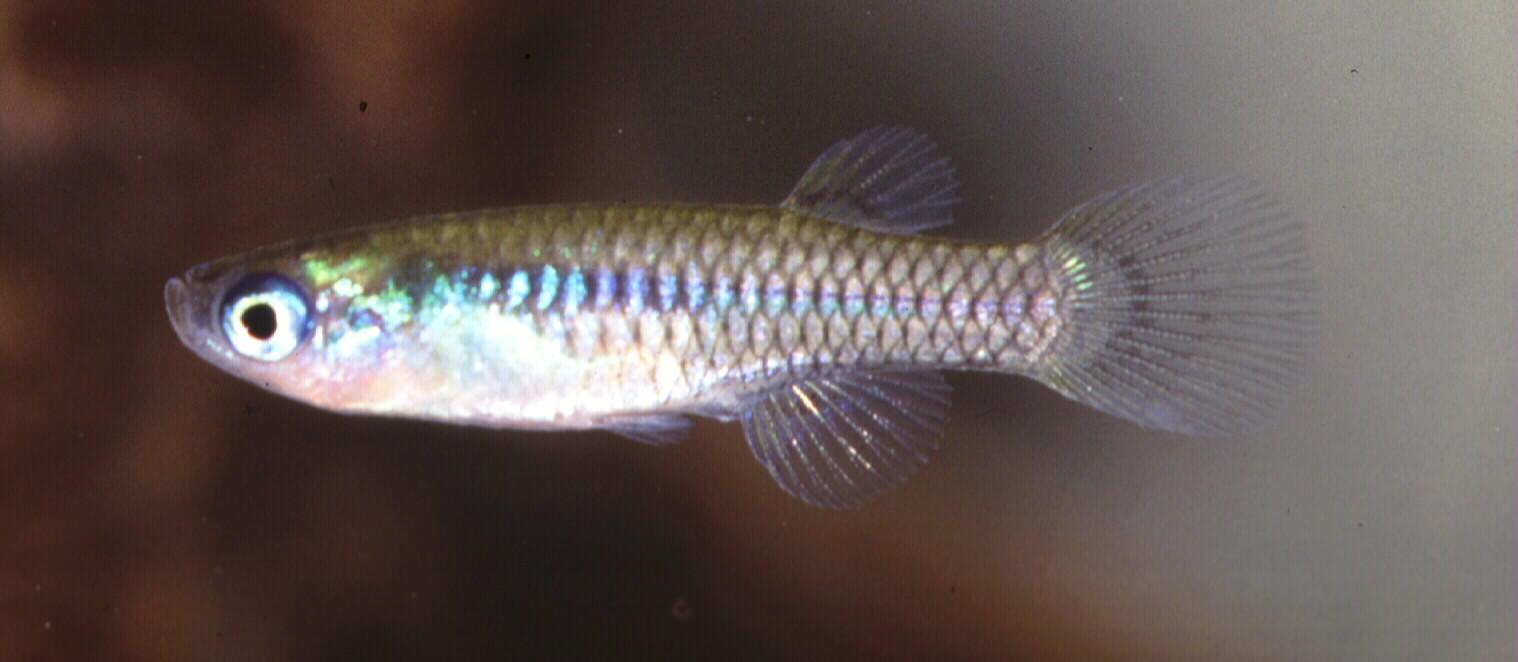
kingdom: Animalia
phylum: Chordata
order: Cyprinodontiformes
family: Poeciliidae
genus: Micropanchax
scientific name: Micropanchax hutereaui
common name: Meshscaled topminnow
